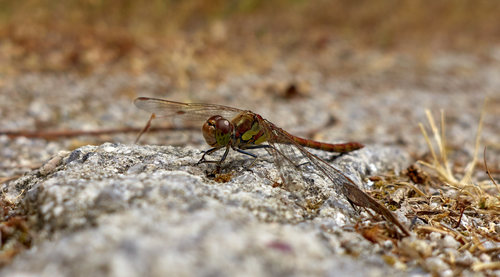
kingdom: Animalia
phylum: Arthropoda
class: Insecta
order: Odonata
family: Libellulidae
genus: Sympetrum
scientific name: Sympetrum striolatum
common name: Common darter
